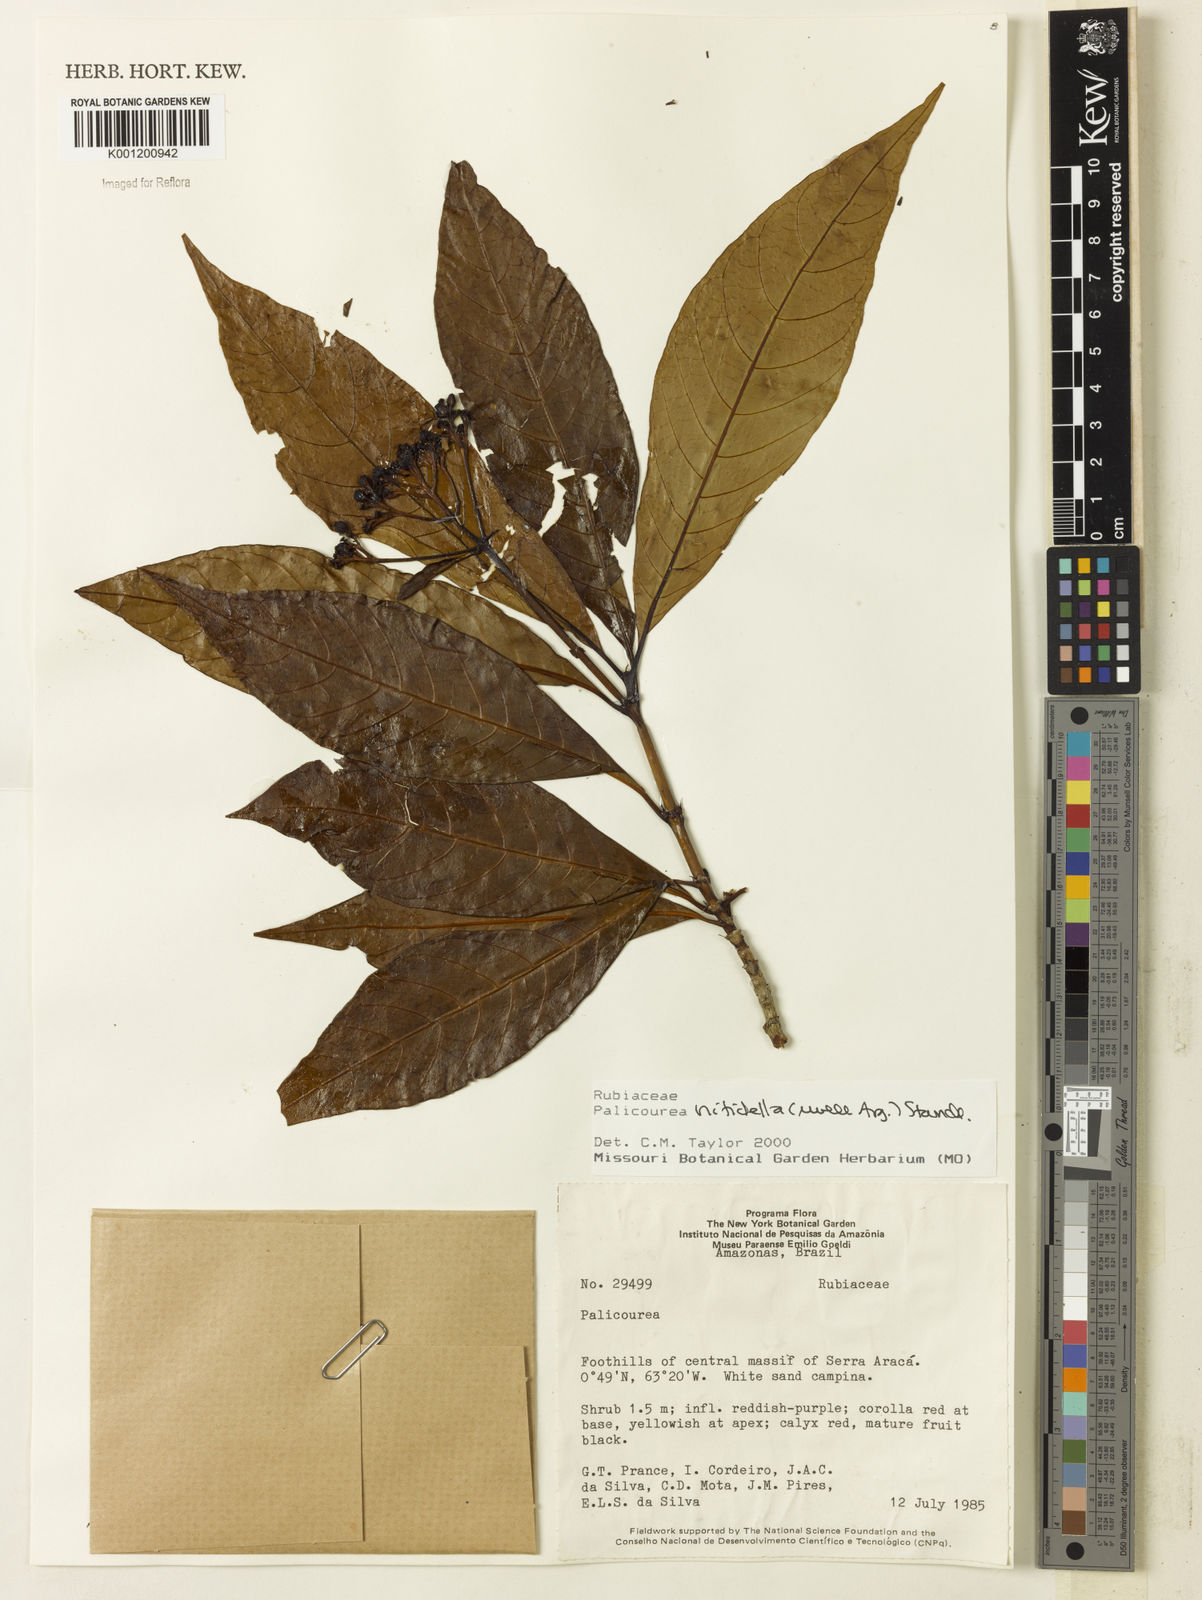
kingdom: Plantae
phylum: Tracheophyta
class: Magnoliopsida
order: Gentianales
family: Rubiaceae
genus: Palicourea
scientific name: Palicourea
